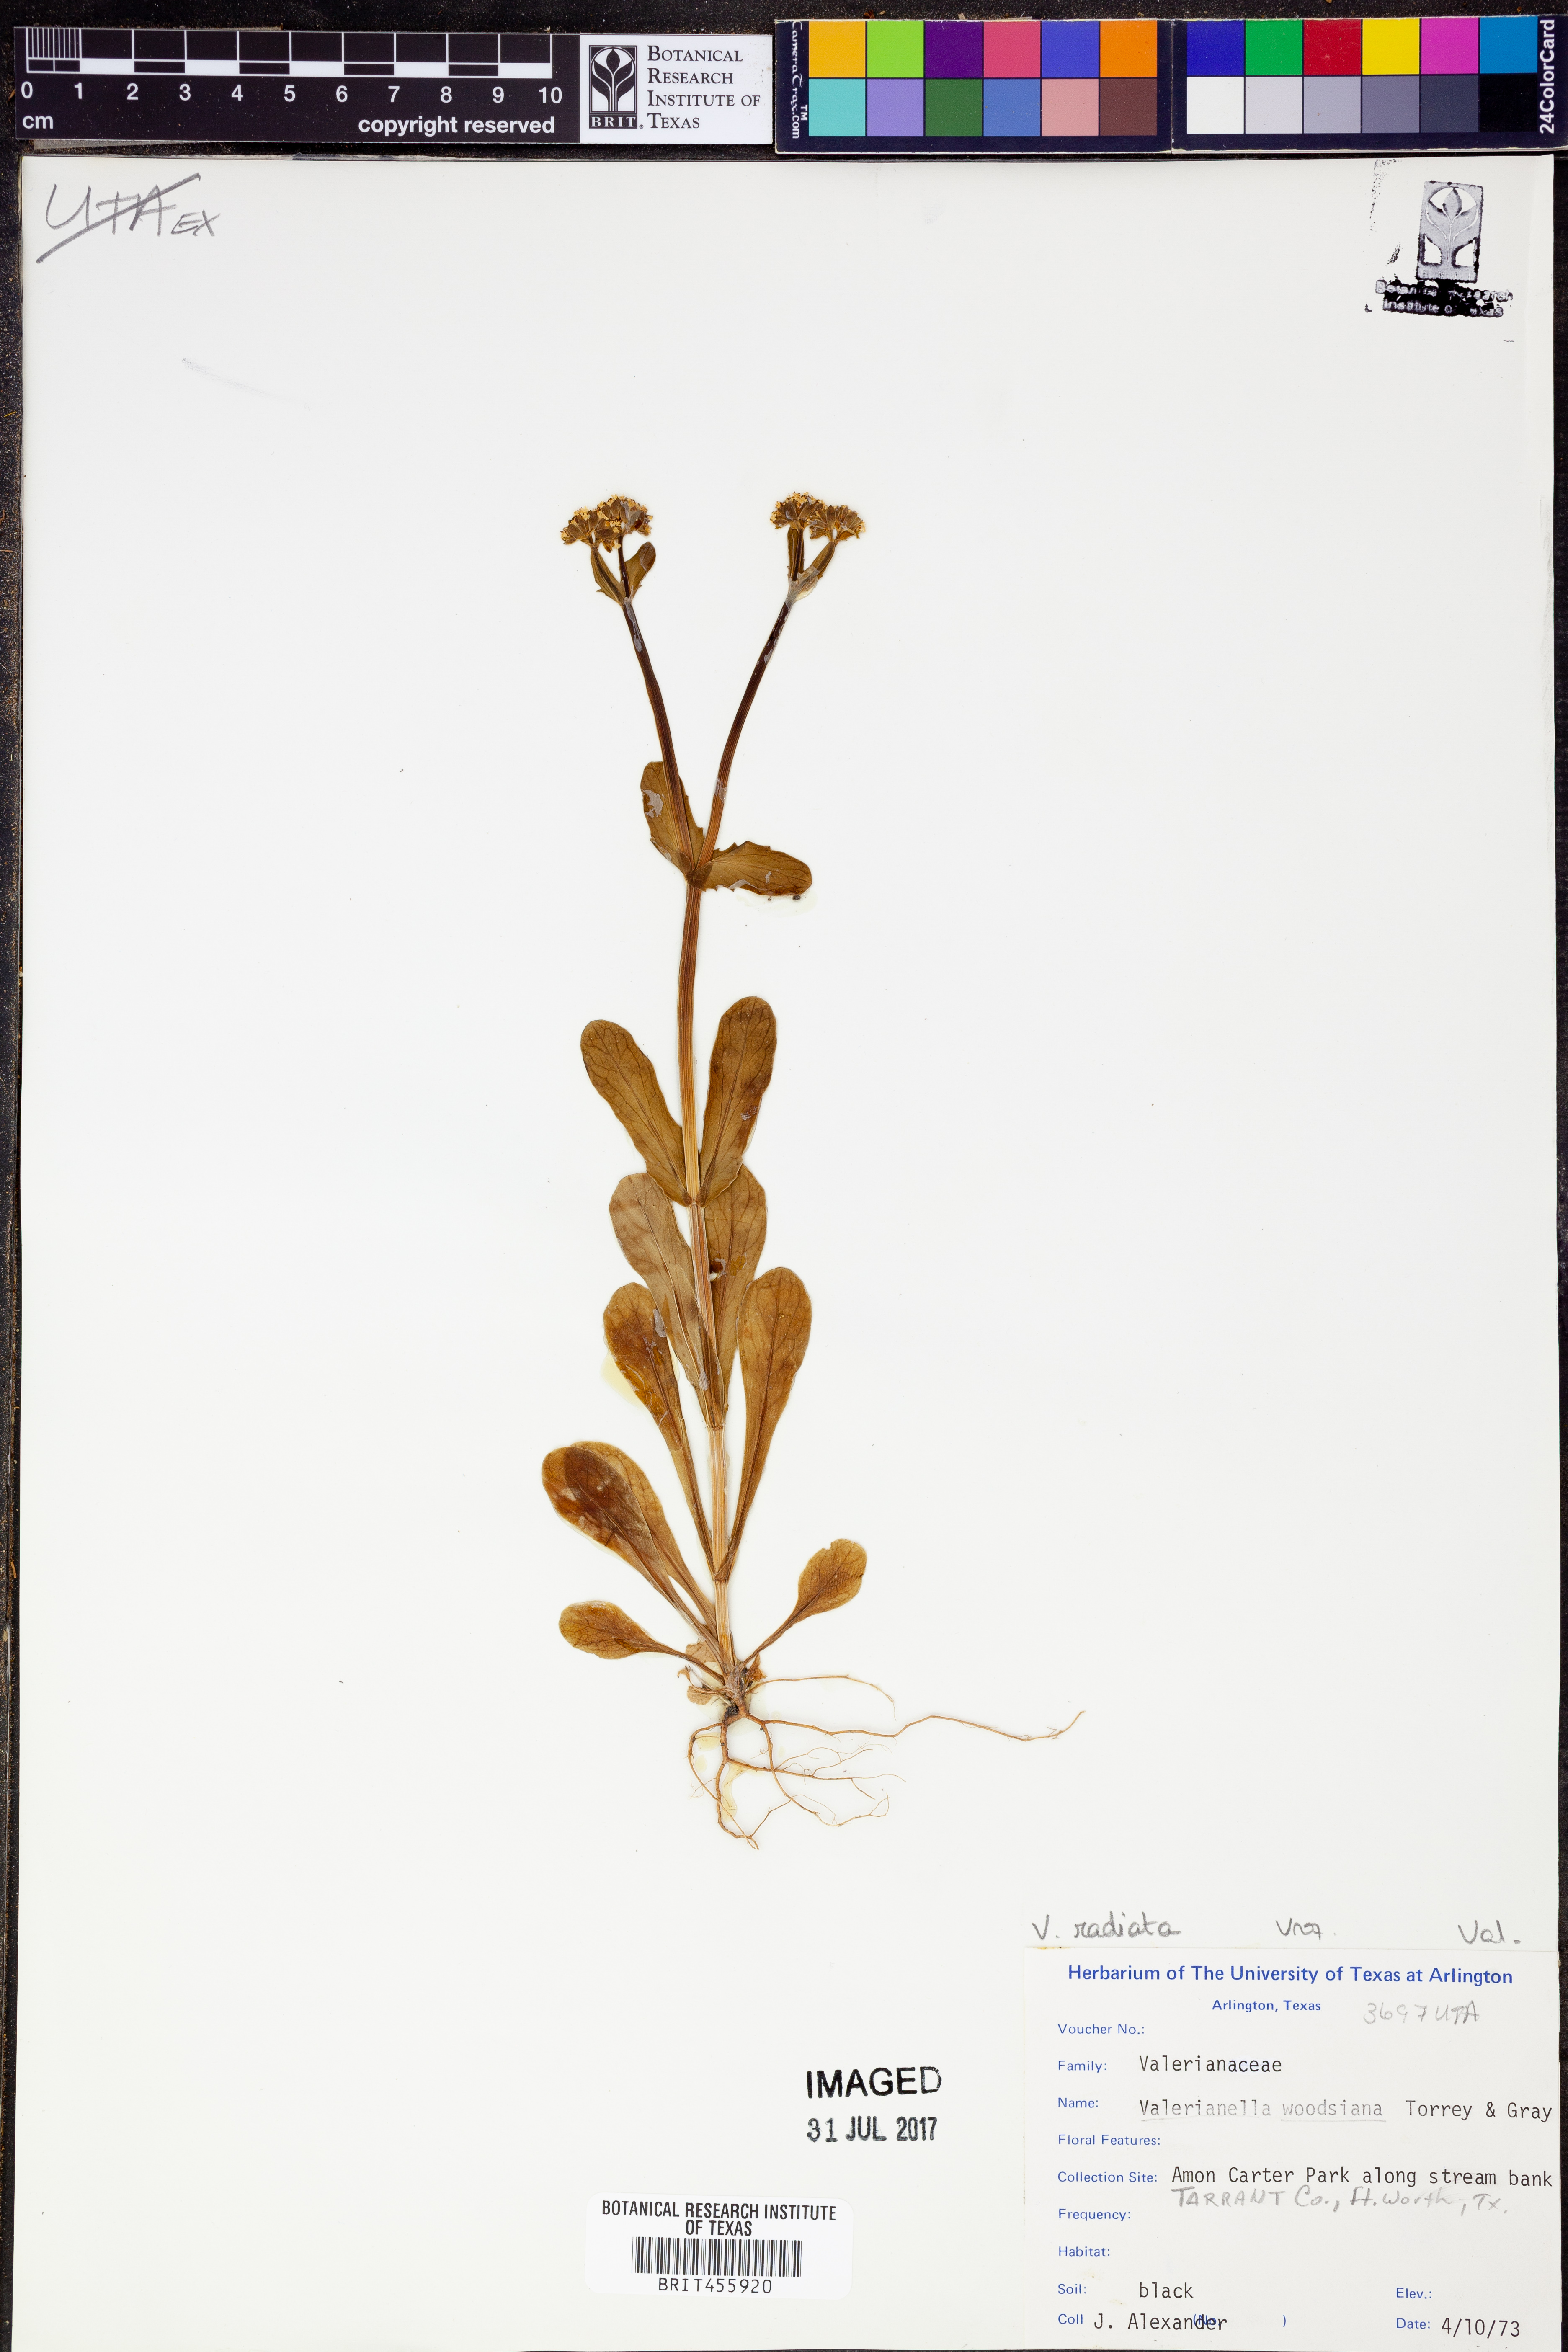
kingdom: Plantae
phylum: Tracheophyta
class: Magnoliopsida
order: Dipsacales
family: Caprifoliaceae
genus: Valerianella
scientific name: Valerianella radiata
